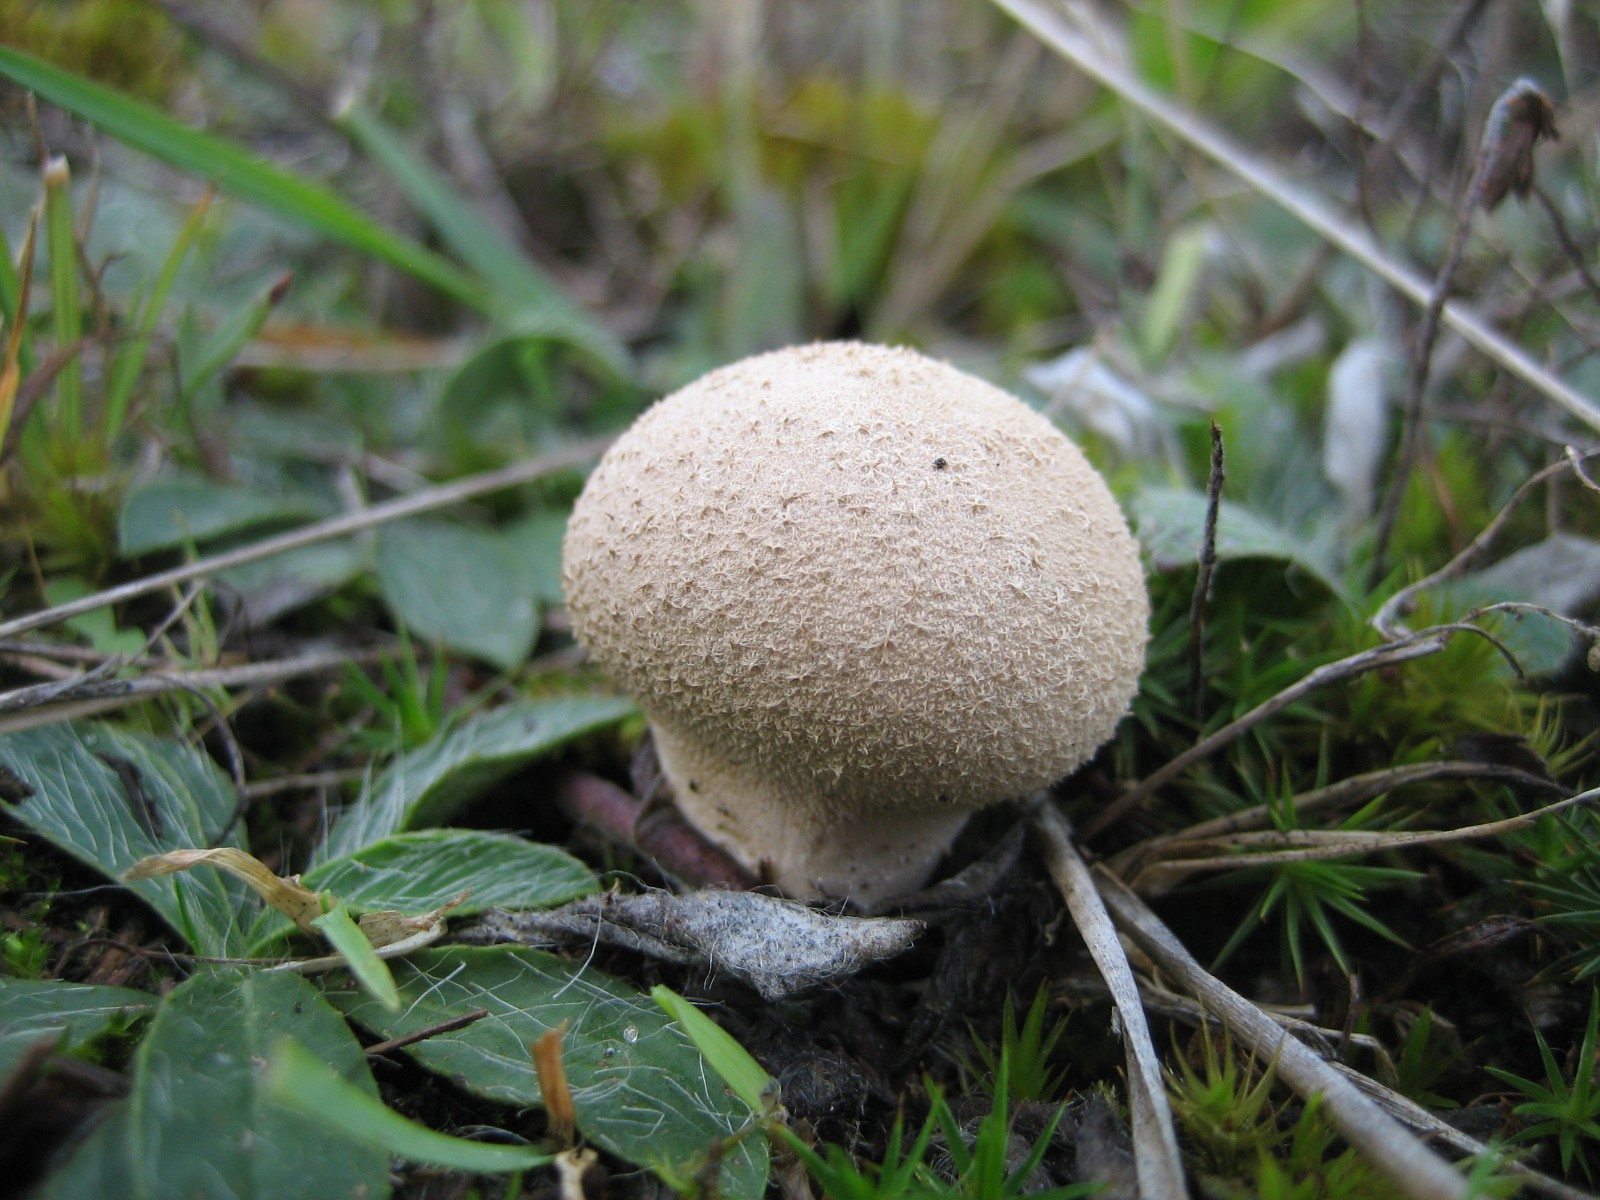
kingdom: Fungi
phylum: Basidiomycota
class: Agaricomycetes
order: Agaricales
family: Agaricaceae
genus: Lycoperdon
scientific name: Lycoperdon
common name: støvbold
